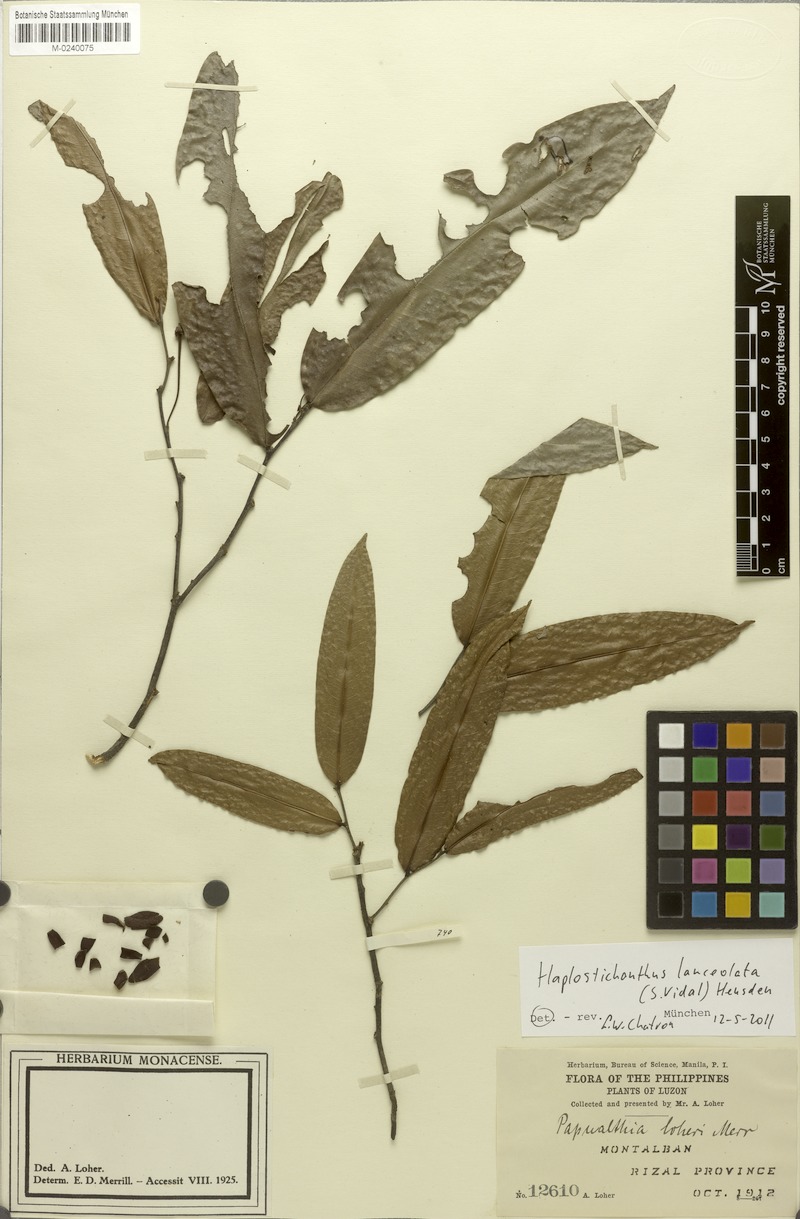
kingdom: Plantae
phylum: Tracheophyta
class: Magnoliopsida
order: Magnoliales
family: Annonaceae
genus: Haplostichanthus
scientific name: Haplostichanthus lanceolata
